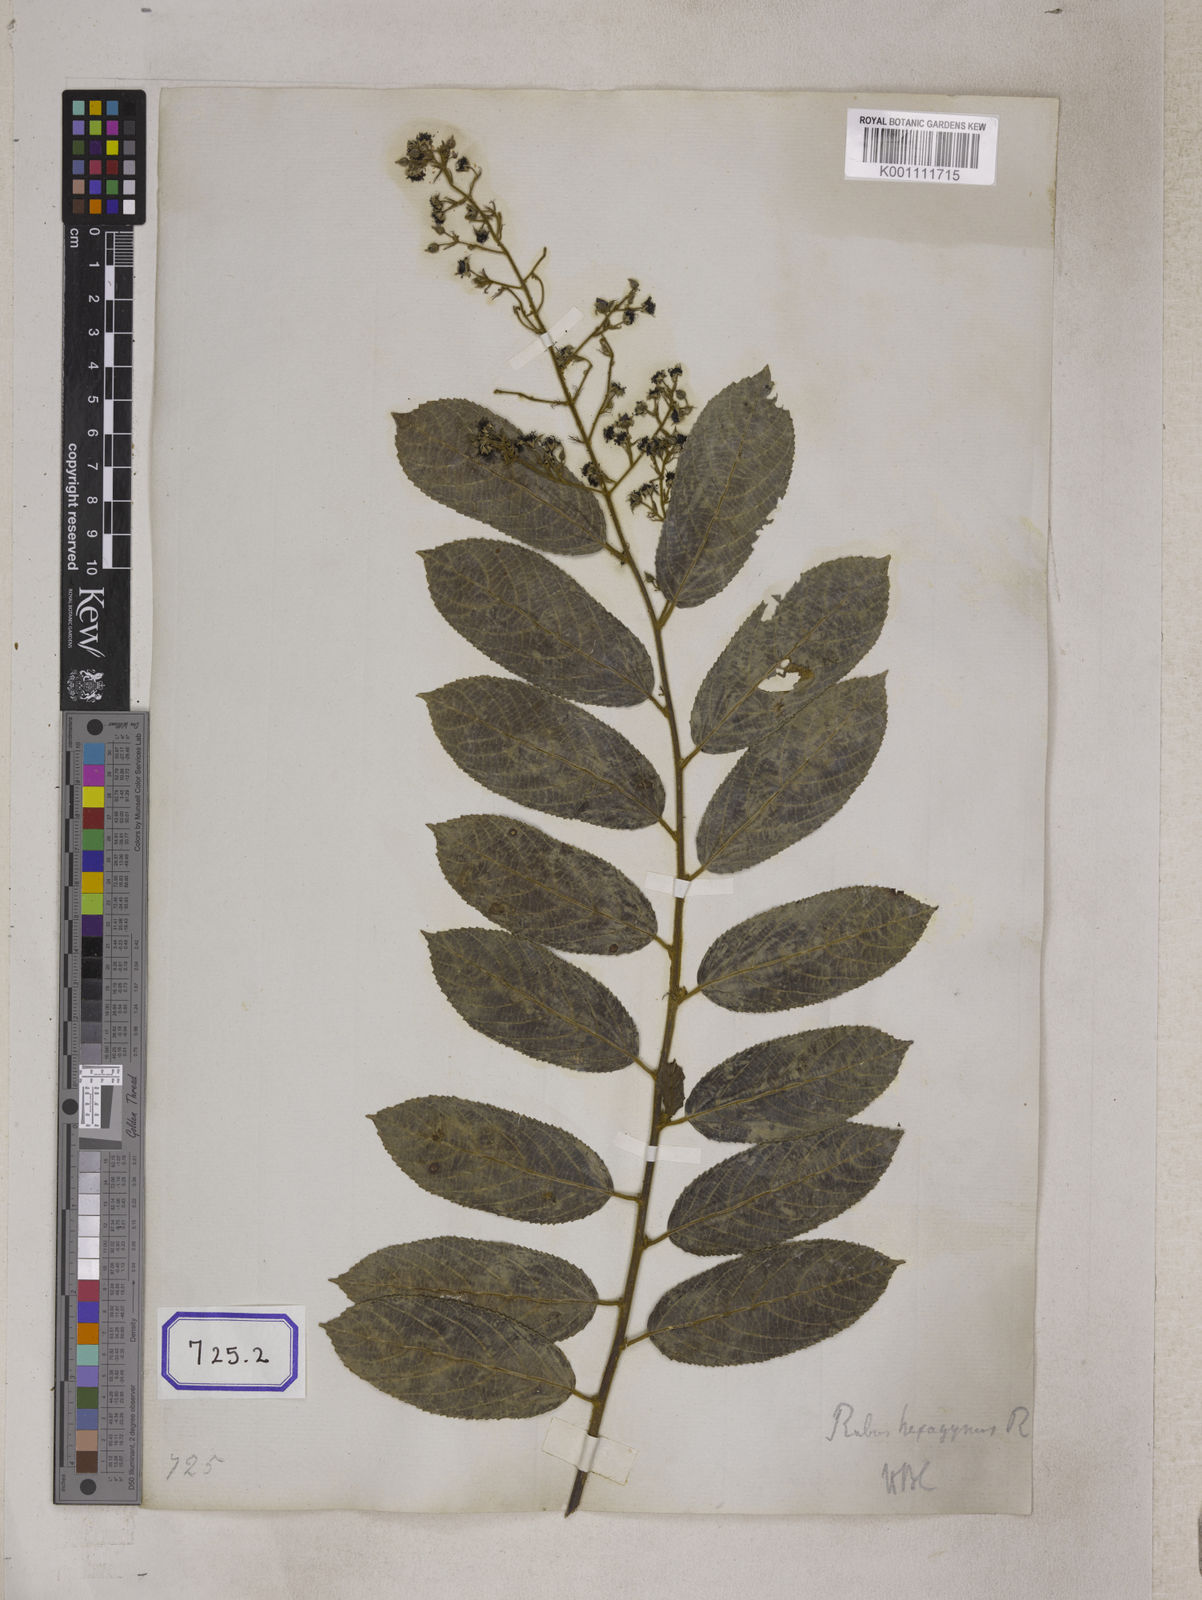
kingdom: Plantae
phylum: Tracheophyta
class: Magnoliopsida
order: Rosales
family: Rosaceae
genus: Rubus
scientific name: Rubus hexagynus
